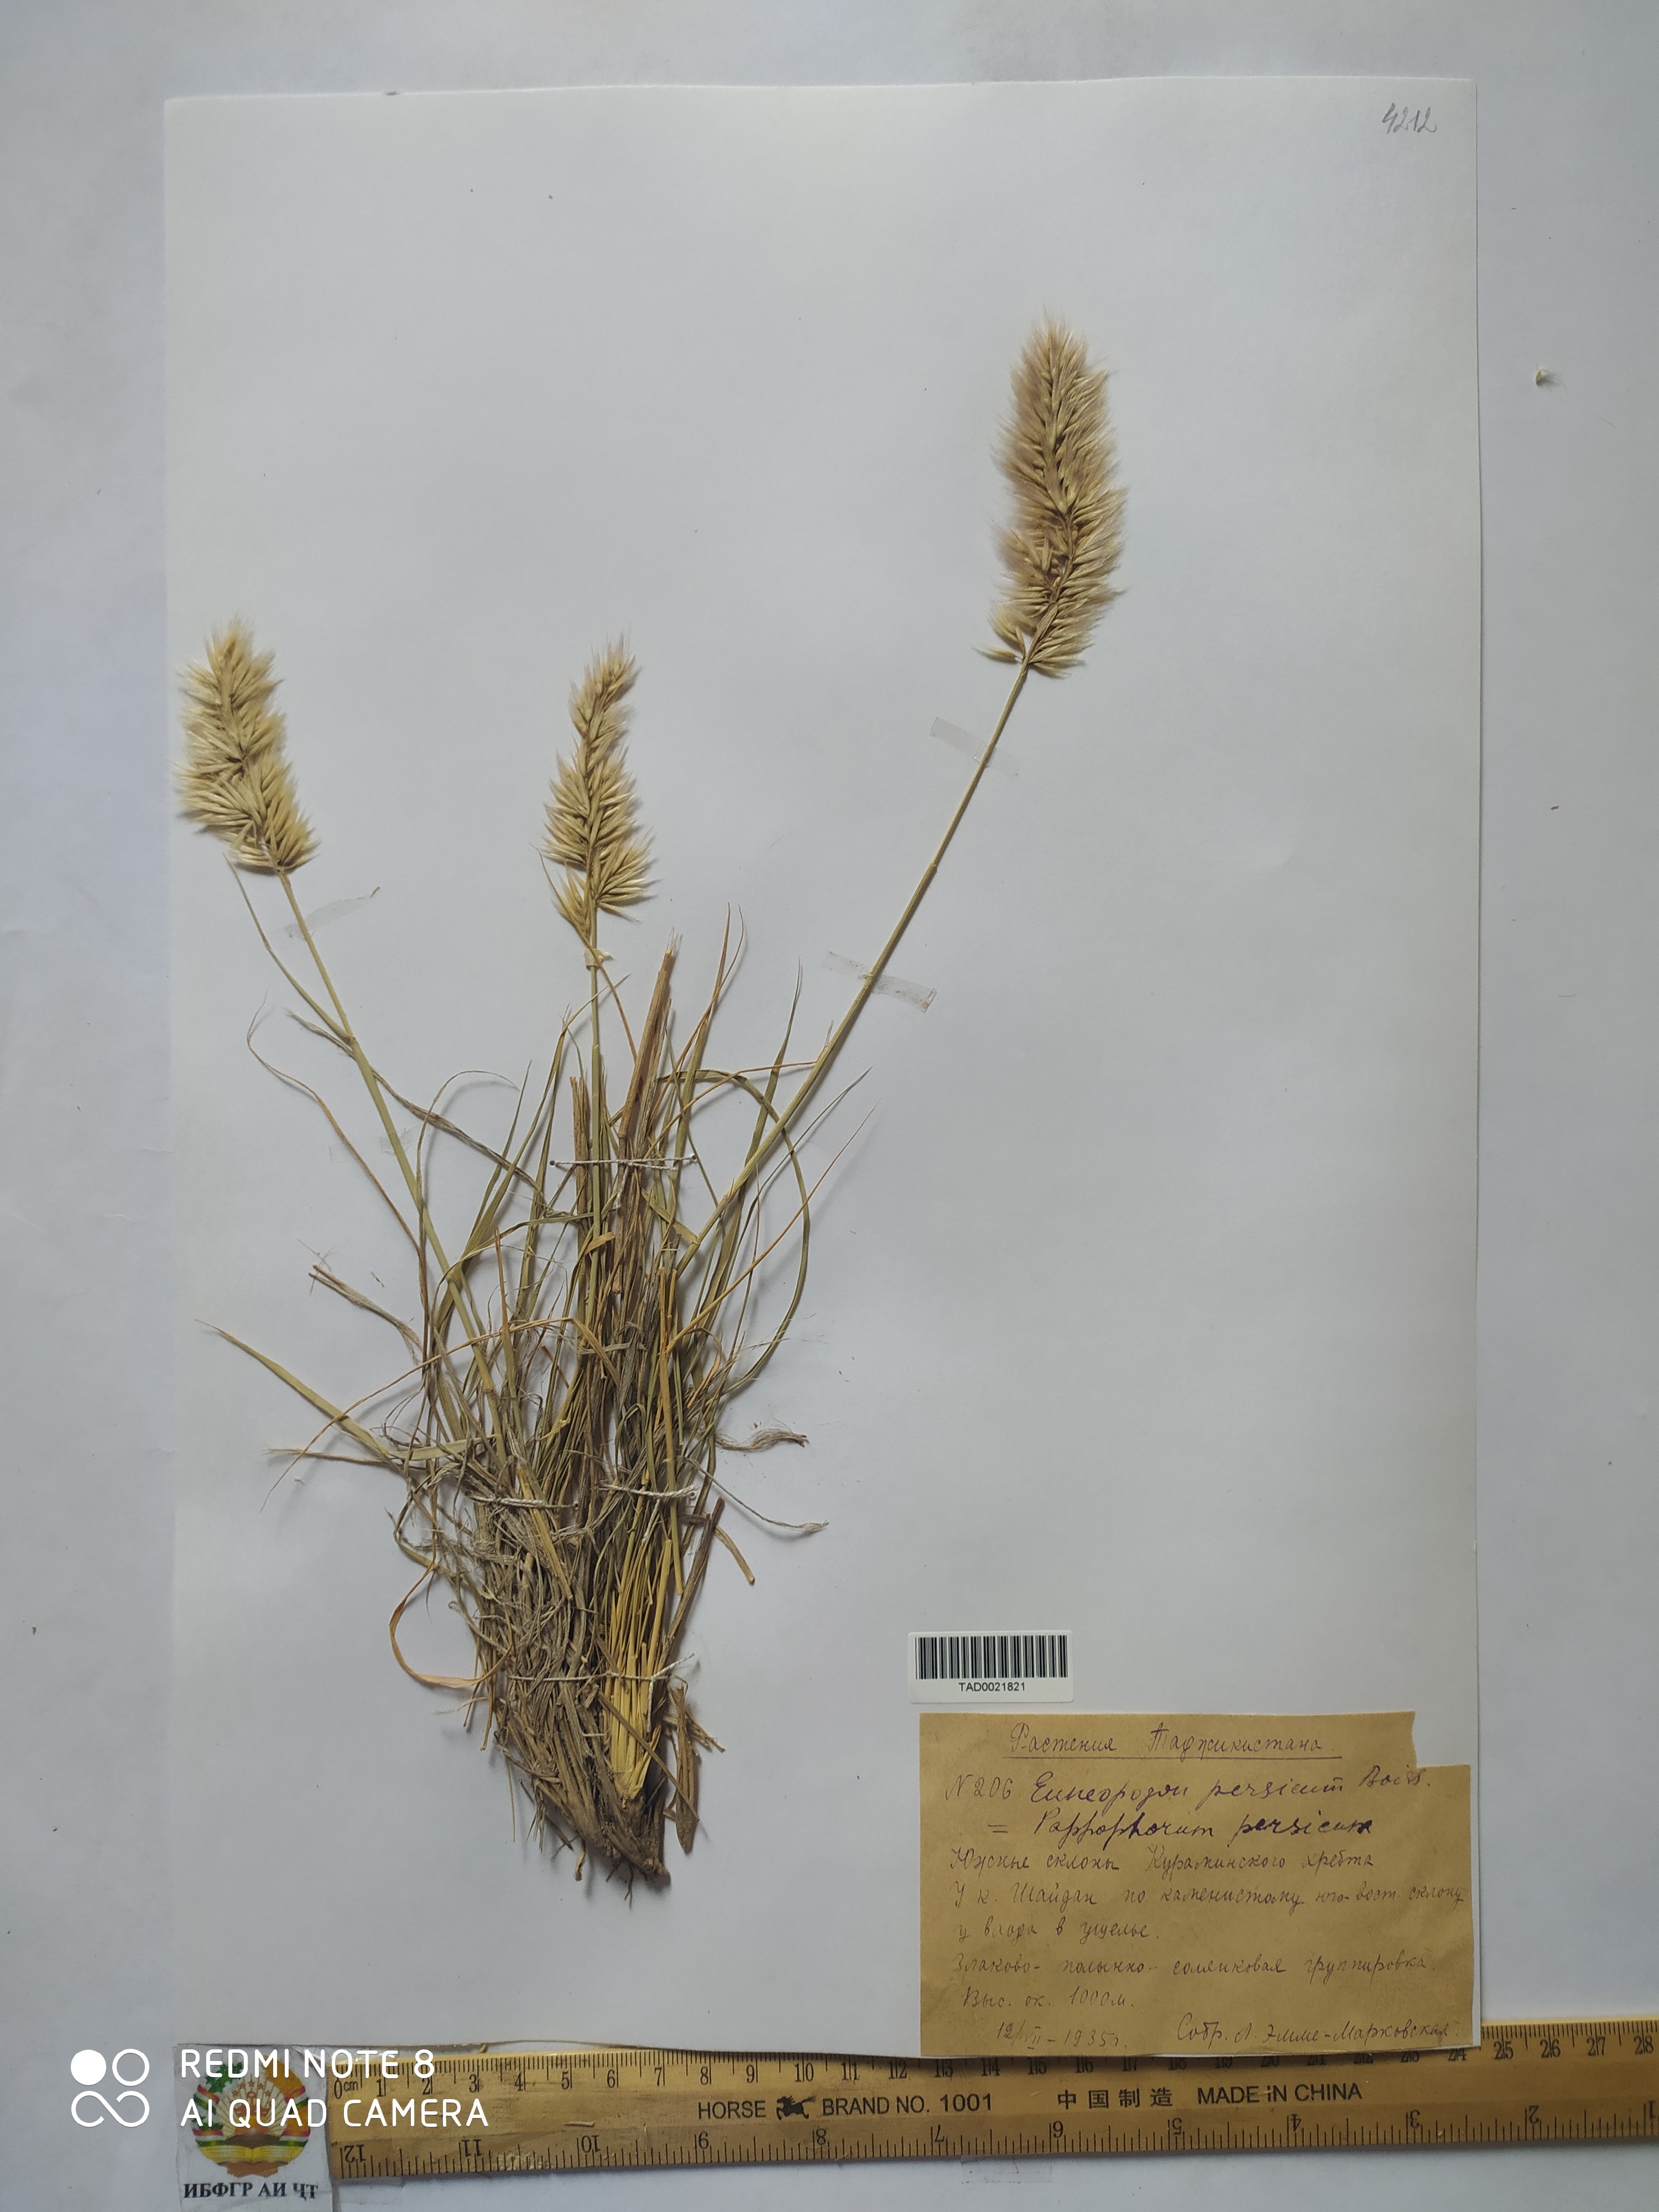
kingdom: Plantae
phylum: Tracheophyta
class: Liliopsida
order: Poales
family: Poaceae
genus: Enneapogon
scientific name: Enneapogon persicus
